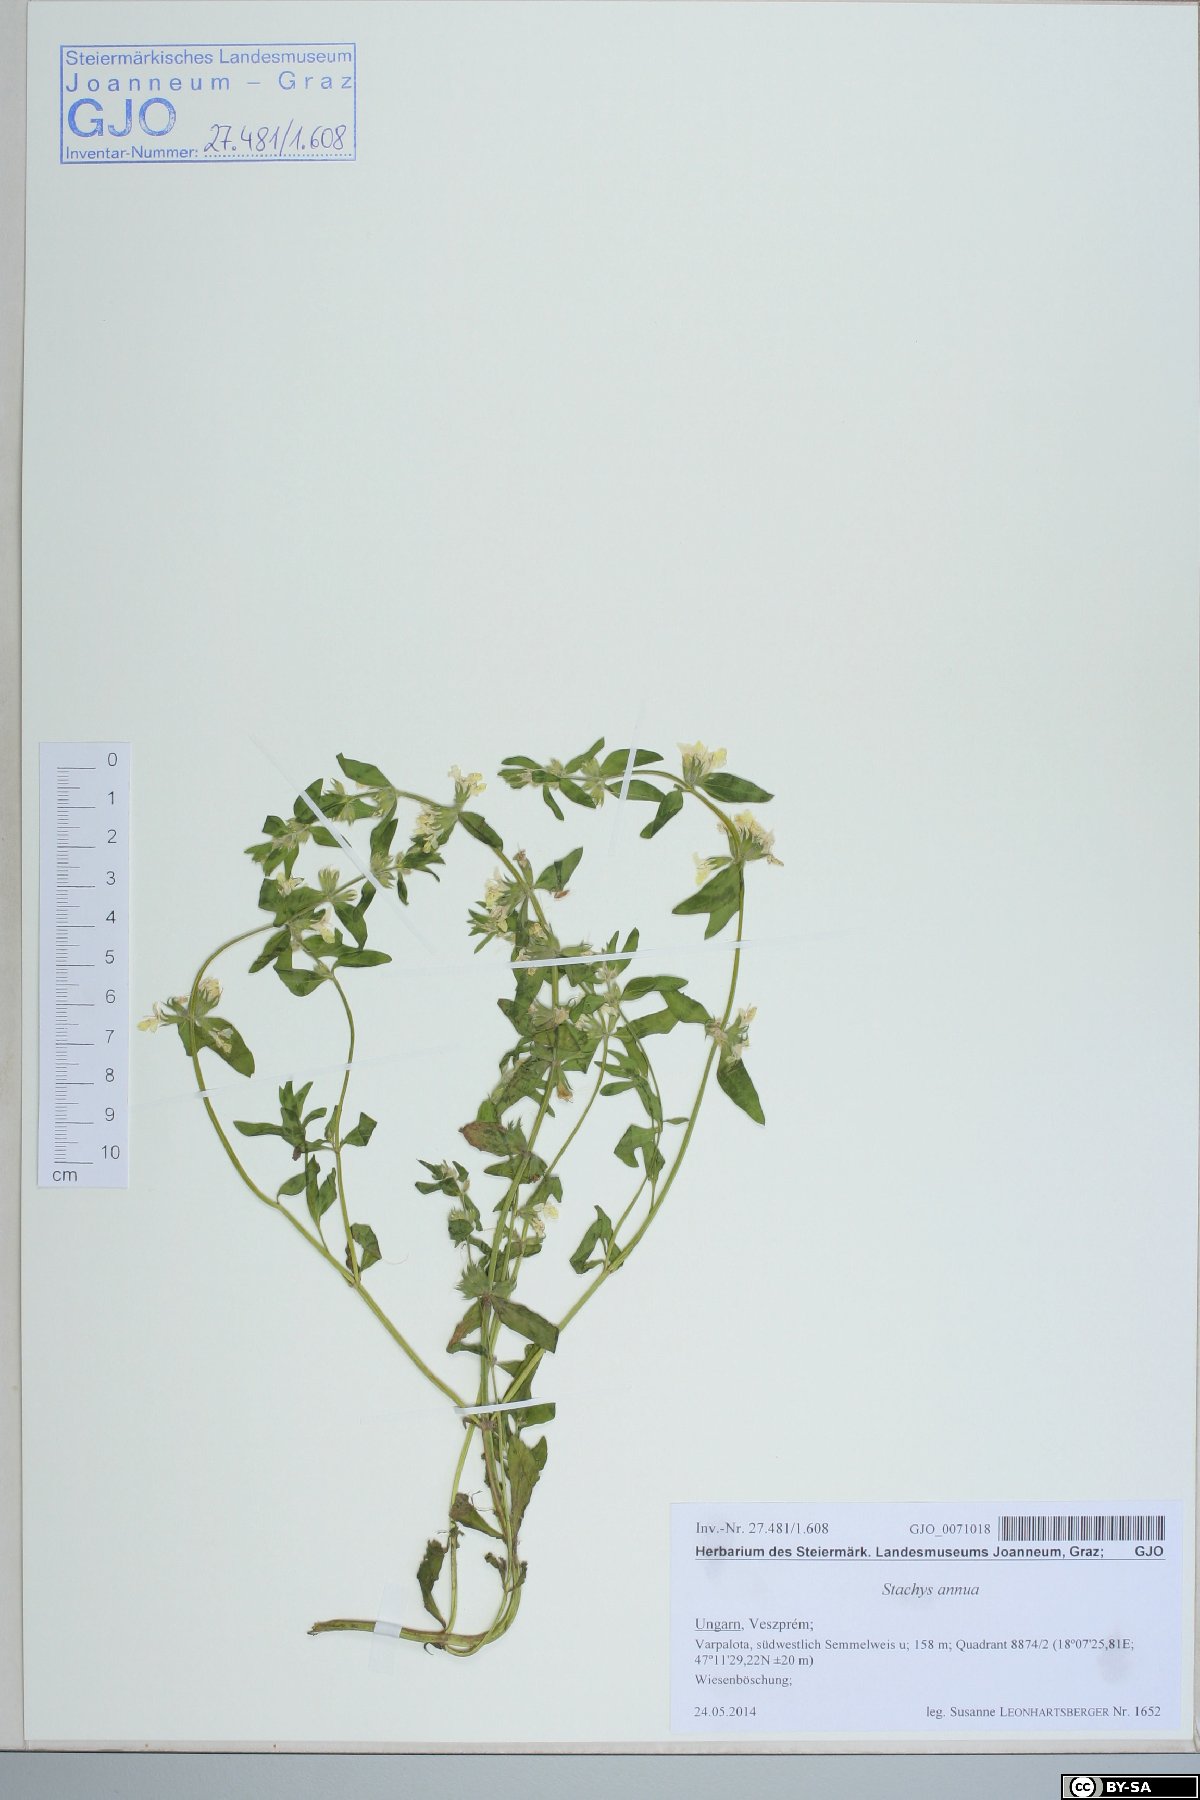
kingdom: Plantae
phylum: Tracheophyta
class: Magnoliopsida
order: Lamiales
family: Lamiaceae
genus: Stachys
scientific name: Stachys annua
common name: Annual yellow-woundwort
